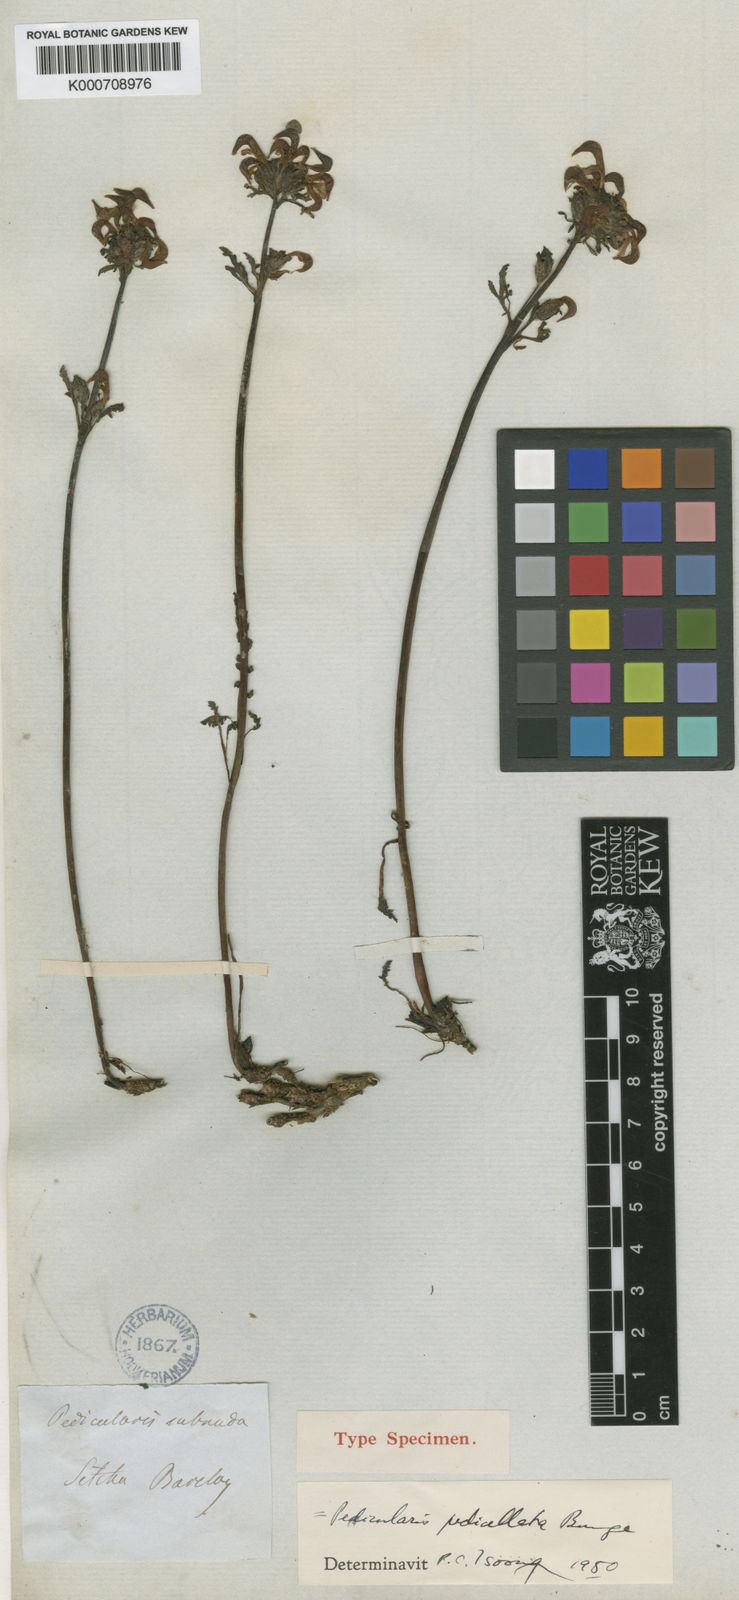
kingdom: Plantae
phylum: Tracheophyta
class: Magnoliopsida
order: Lamiales
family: Orobanchaceae
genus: Pedicularis
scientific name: Pedicularis ornithorhynchos
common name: Bird's-beak lousewort
